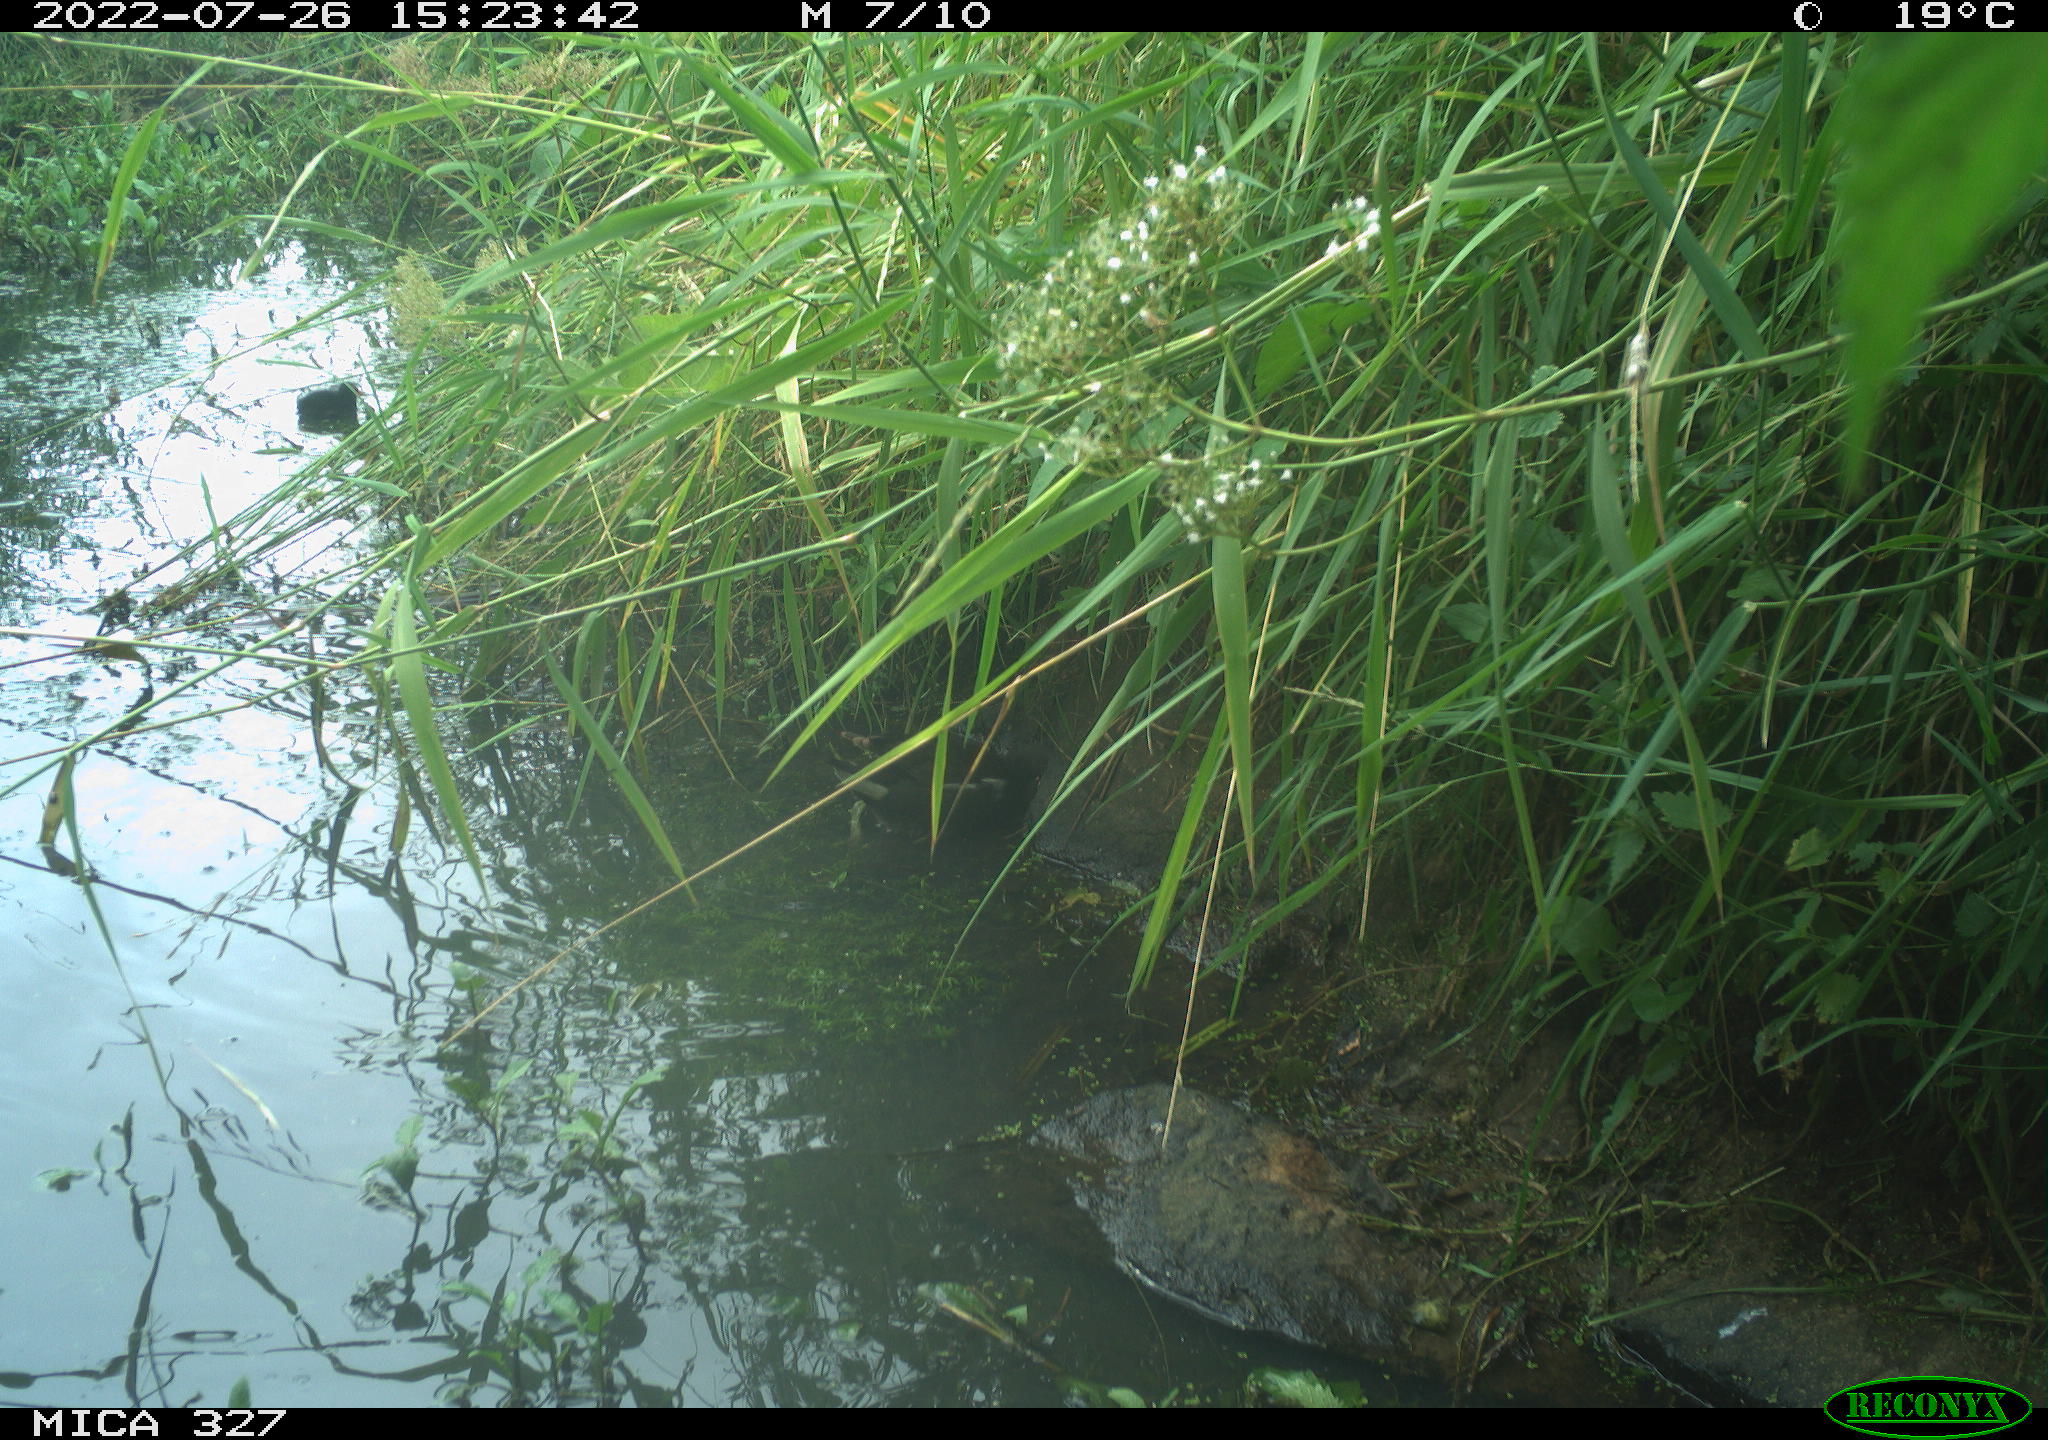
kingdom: Animalia
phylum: Chordata
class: Aves
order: Gruiformes
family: Rallidae
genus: Gallinula
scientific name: Gallinula chloropus
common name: Common moorhen
